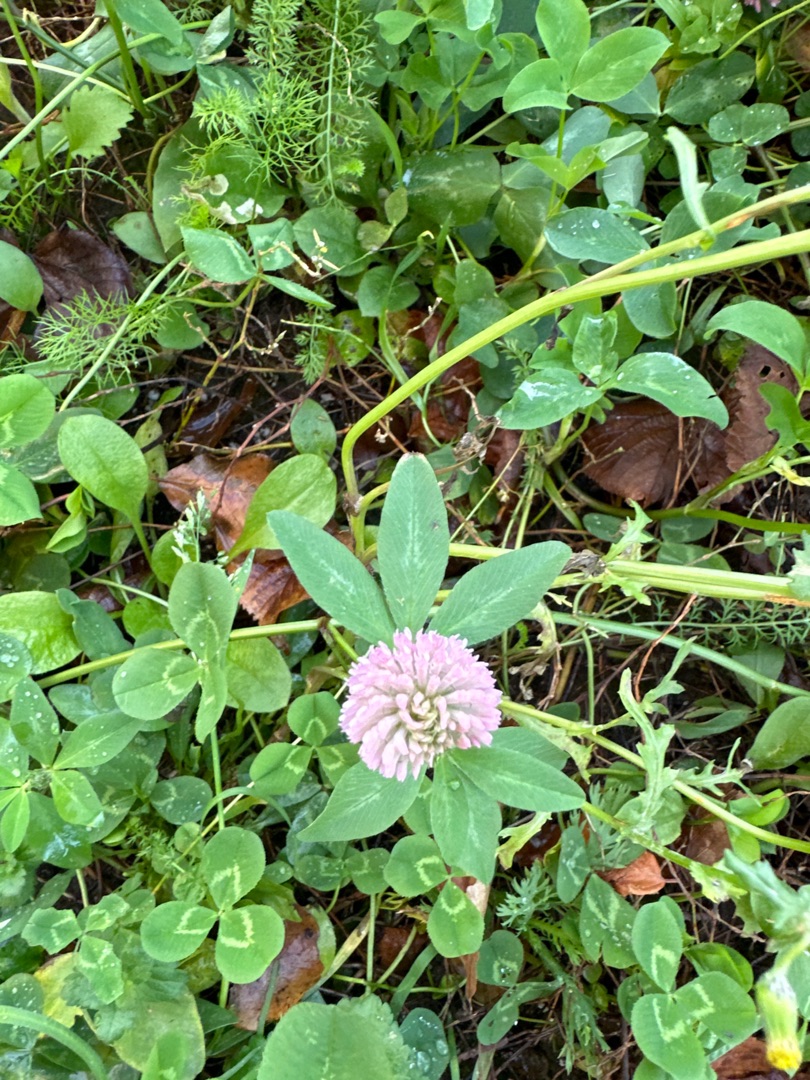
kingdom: Plantae
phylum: Tracheophyta
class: Magnoliopsida
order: Fabales
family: Fabaceae
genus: Trifolium
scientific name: Trifolium pratense
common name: Rød-kløver
